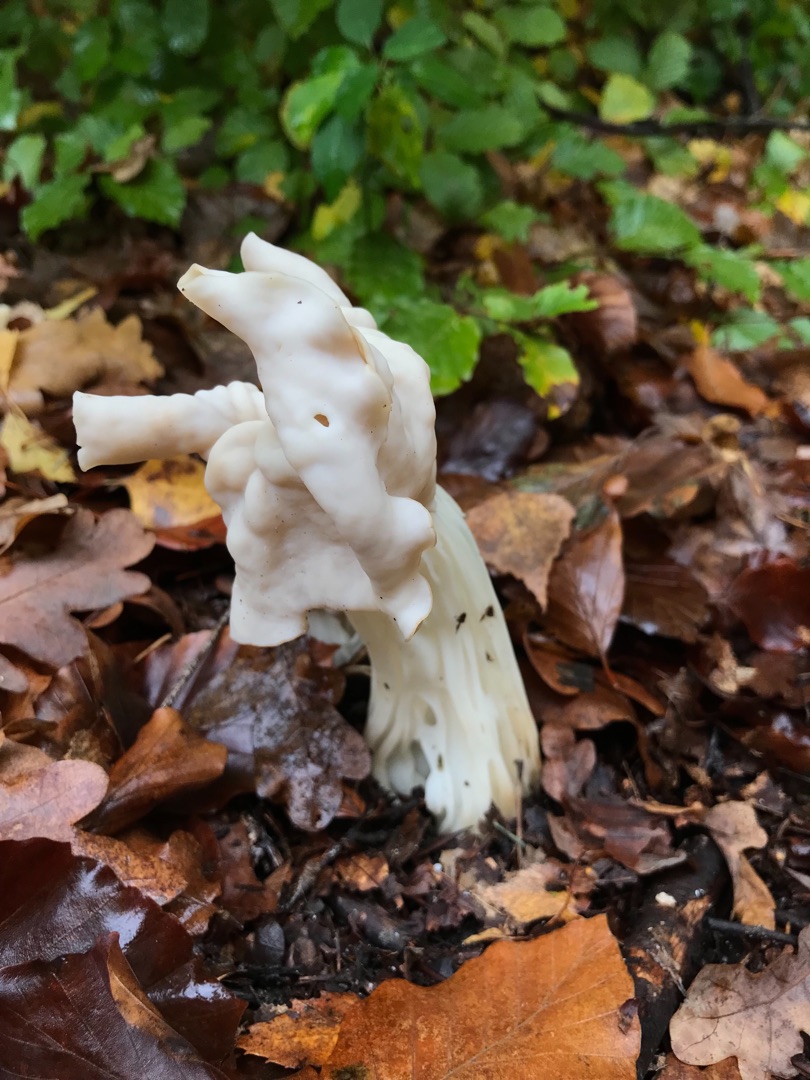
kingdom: Fungi
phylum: Ascomycota
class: Pezizomycetes
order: Pezizales
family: Helvellaceae
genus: Helvella
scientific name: Helvella crispa
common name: Kruset foldhat
